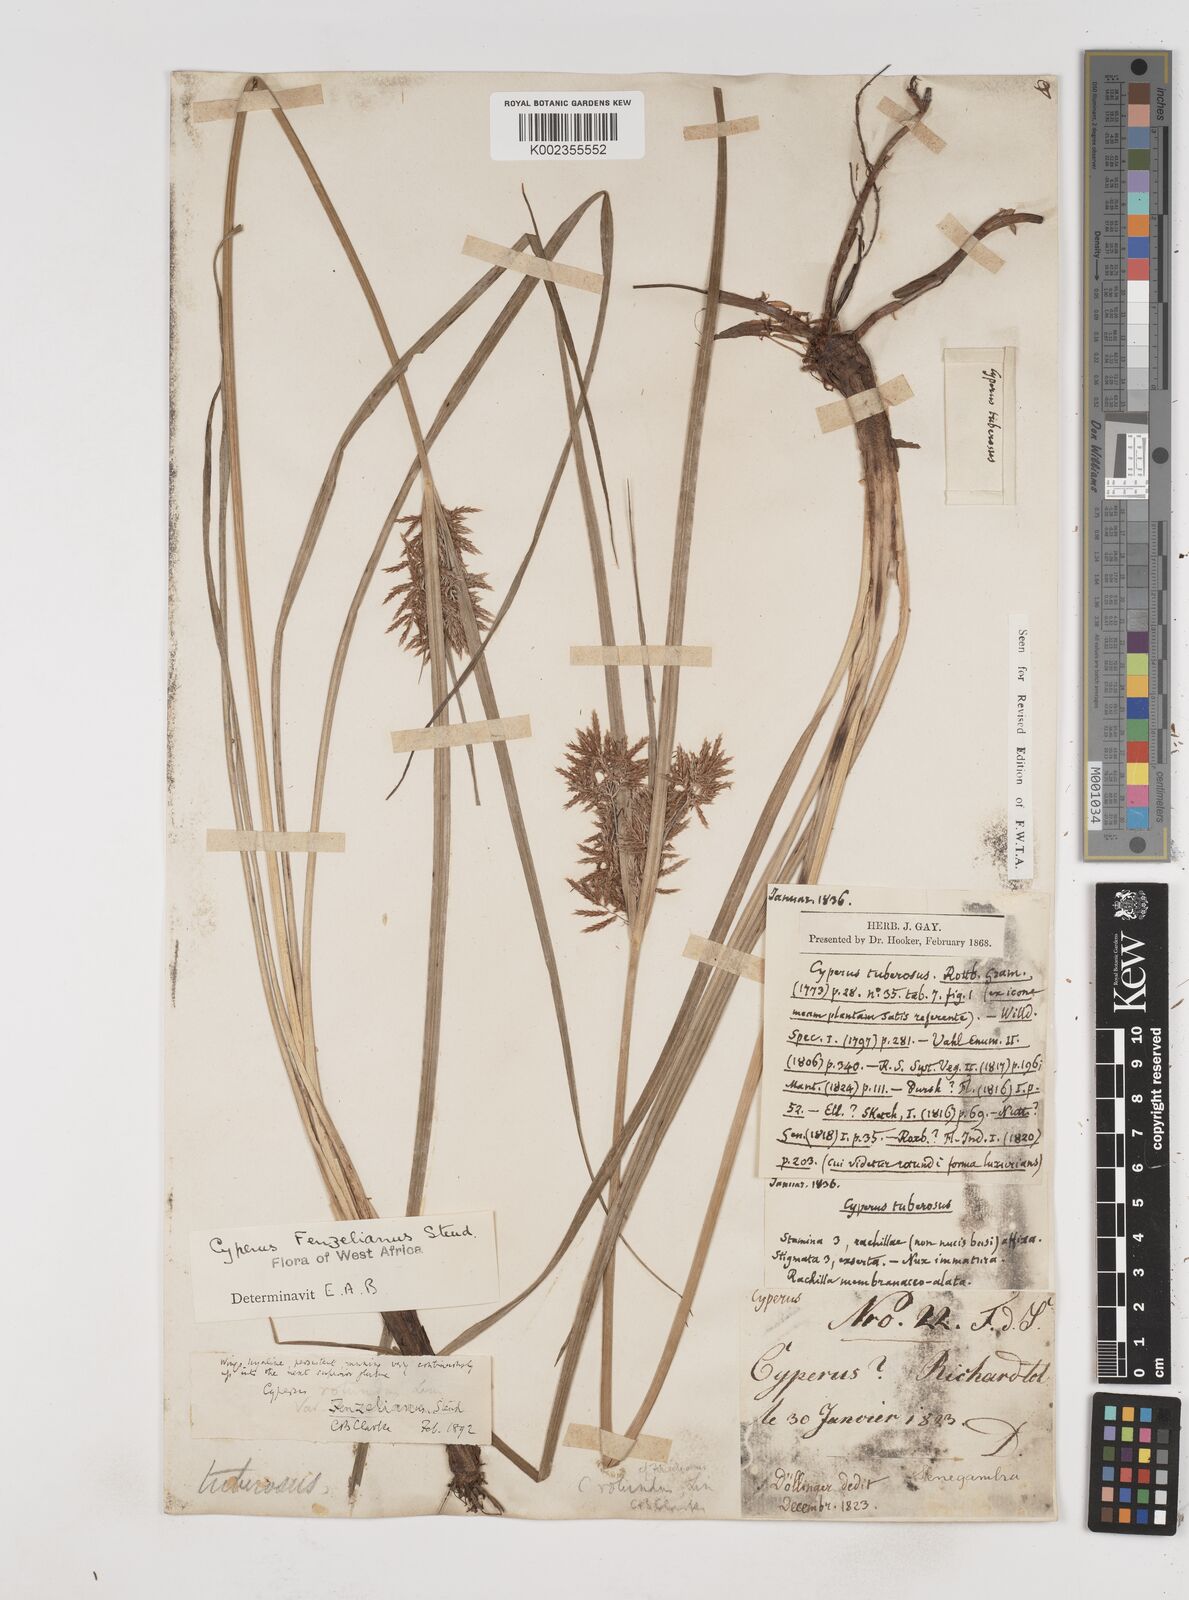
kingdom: Plantae
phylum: Tracheophyta
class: Liliopsida
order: Poales
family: Cyperaceae
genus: Cyperus
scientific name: Cyperus longus
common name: Galingale
